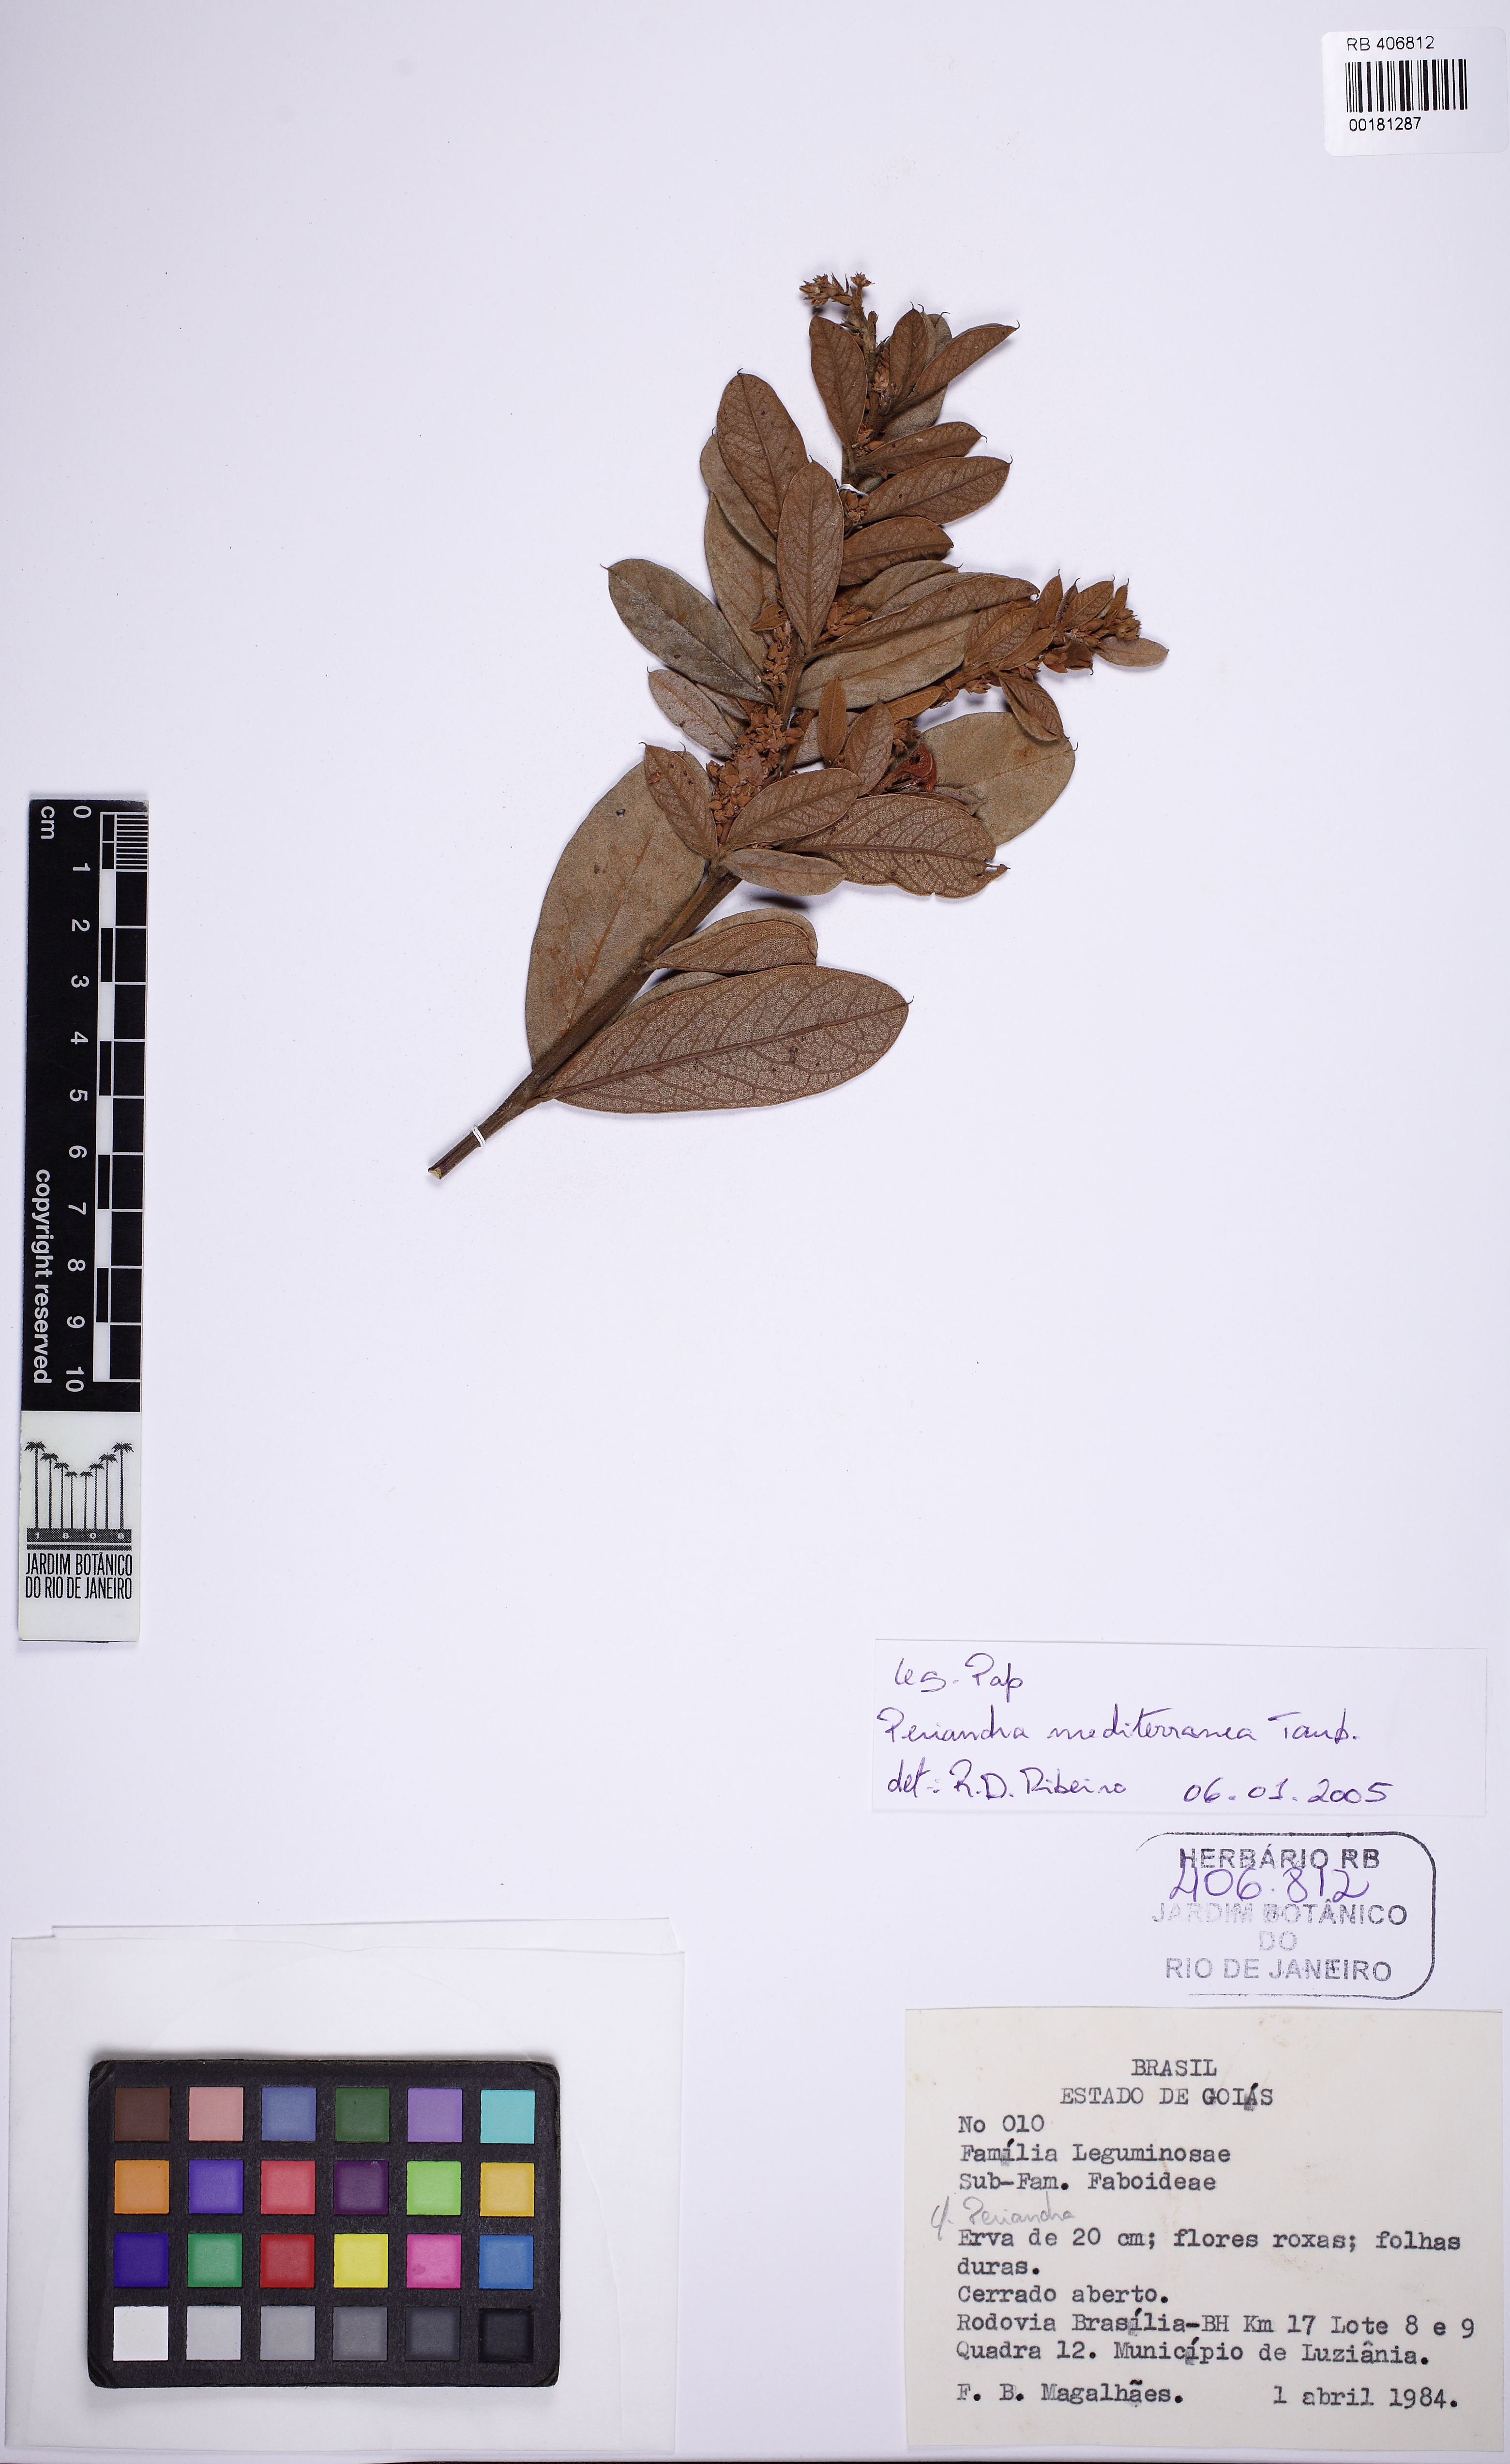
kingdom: Plantae
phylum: Tracheophyta
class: Magnoliopsida
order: Fabales
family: Fabaceae
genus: Periandra
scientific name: Periandra mediterranea
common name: Brazilian licorice
